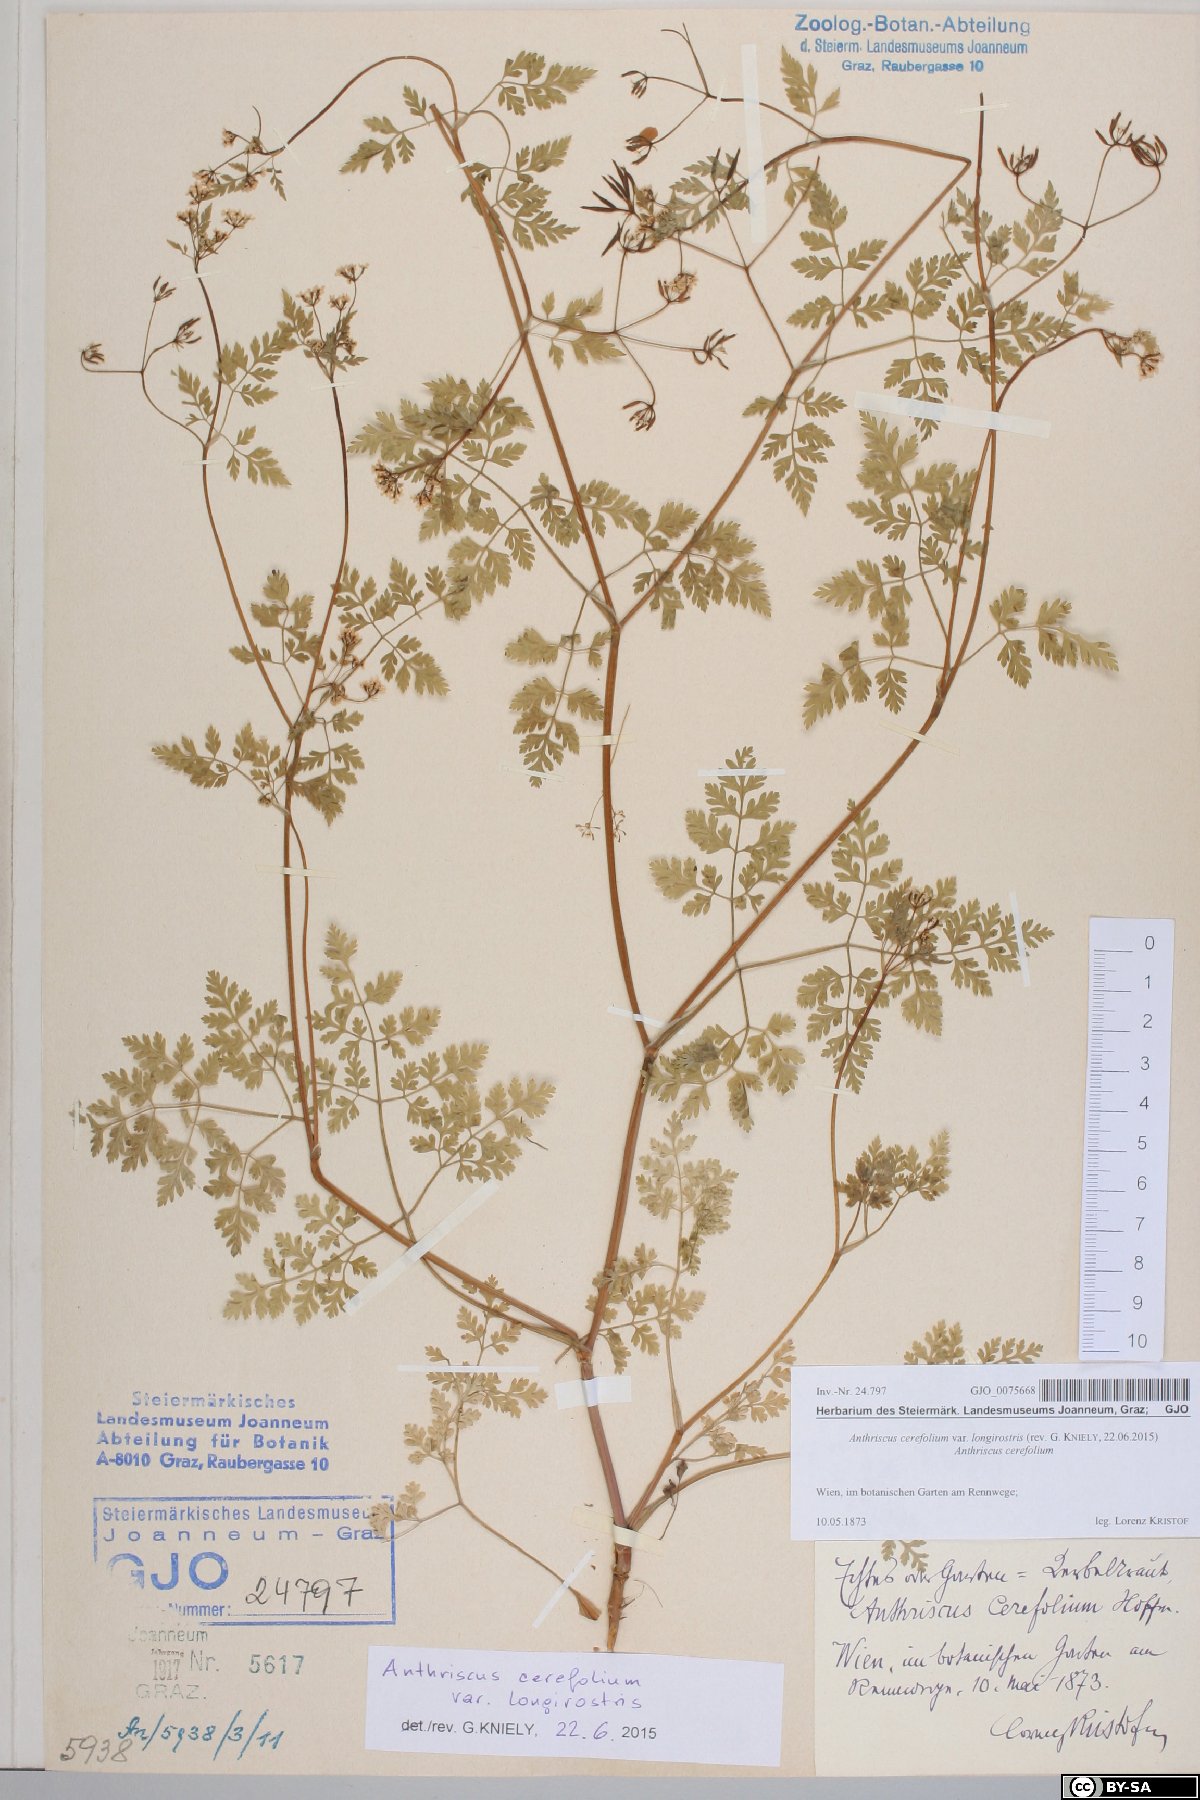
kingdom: Plantae
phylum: Tracheophyta
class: Magnoliopsida
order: Apiales
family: Apiaceae
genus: Anthriscus
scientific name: Anthriscus cerefolium
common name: Garden chervil
